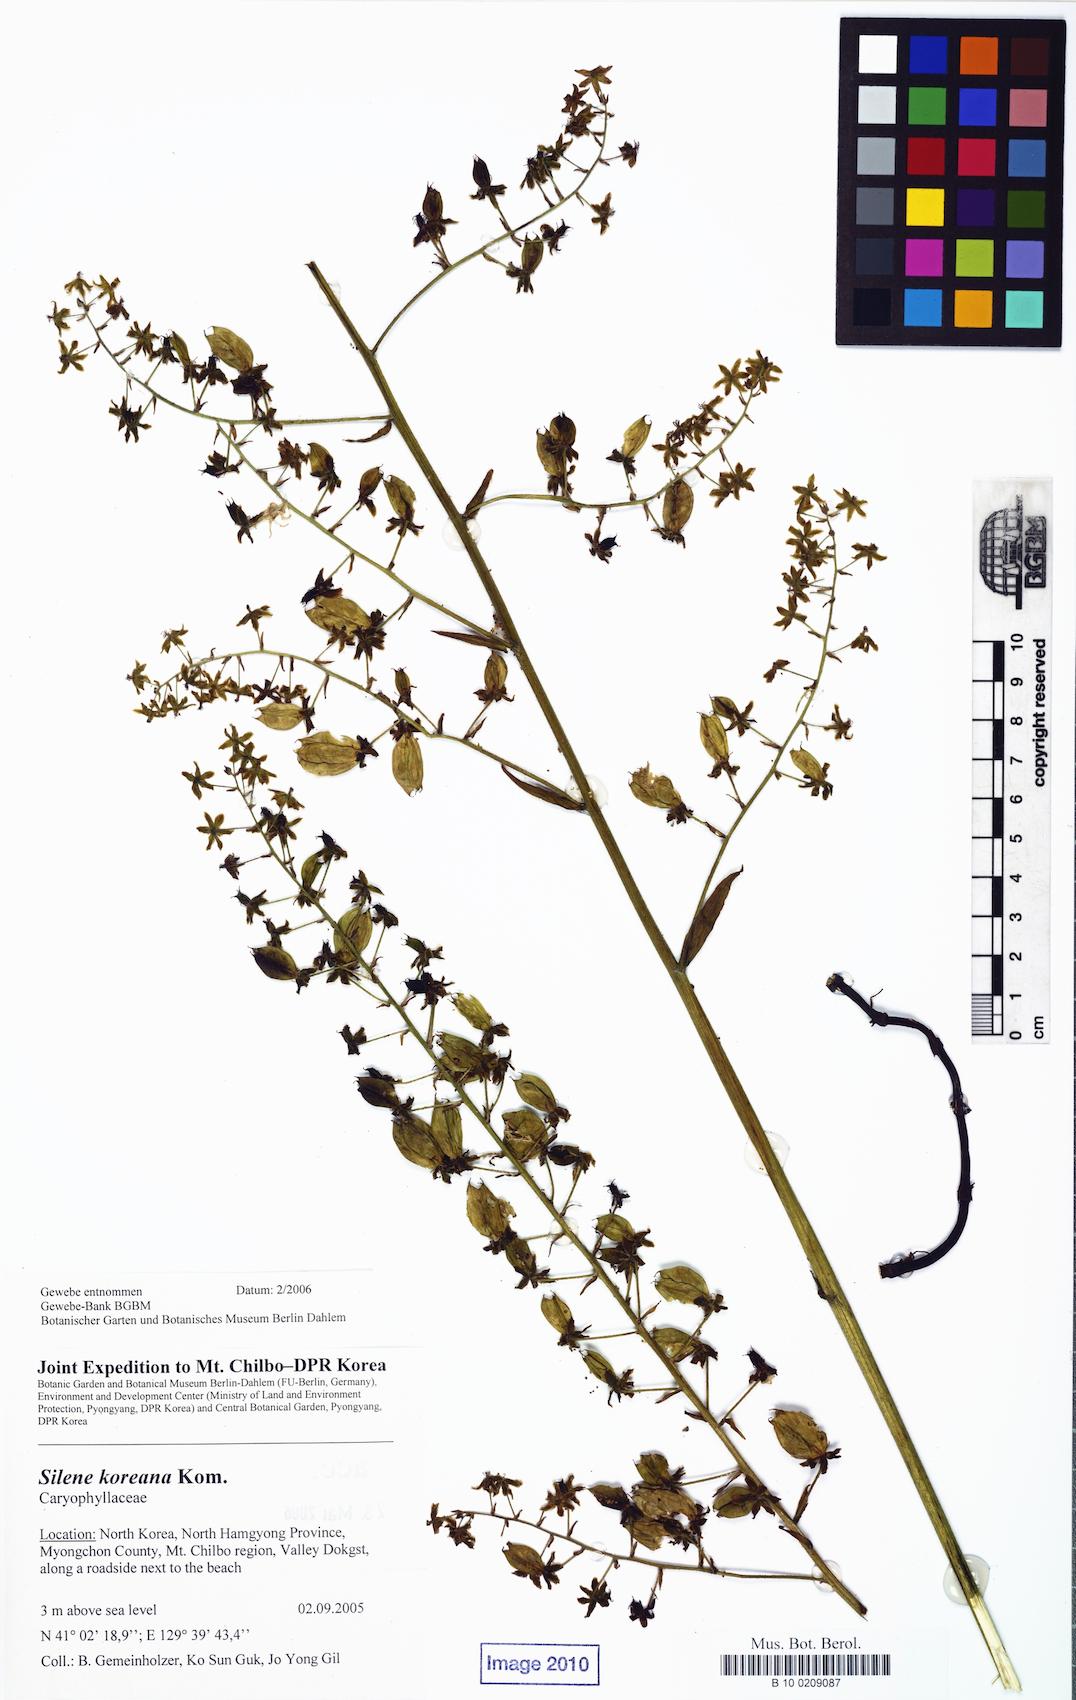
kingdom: Plantae
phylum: Tracheophyta
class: Magnoliopsida
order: Caryophyllales
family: Caryophyllaceae
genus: Silene
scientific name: Silene koreana
